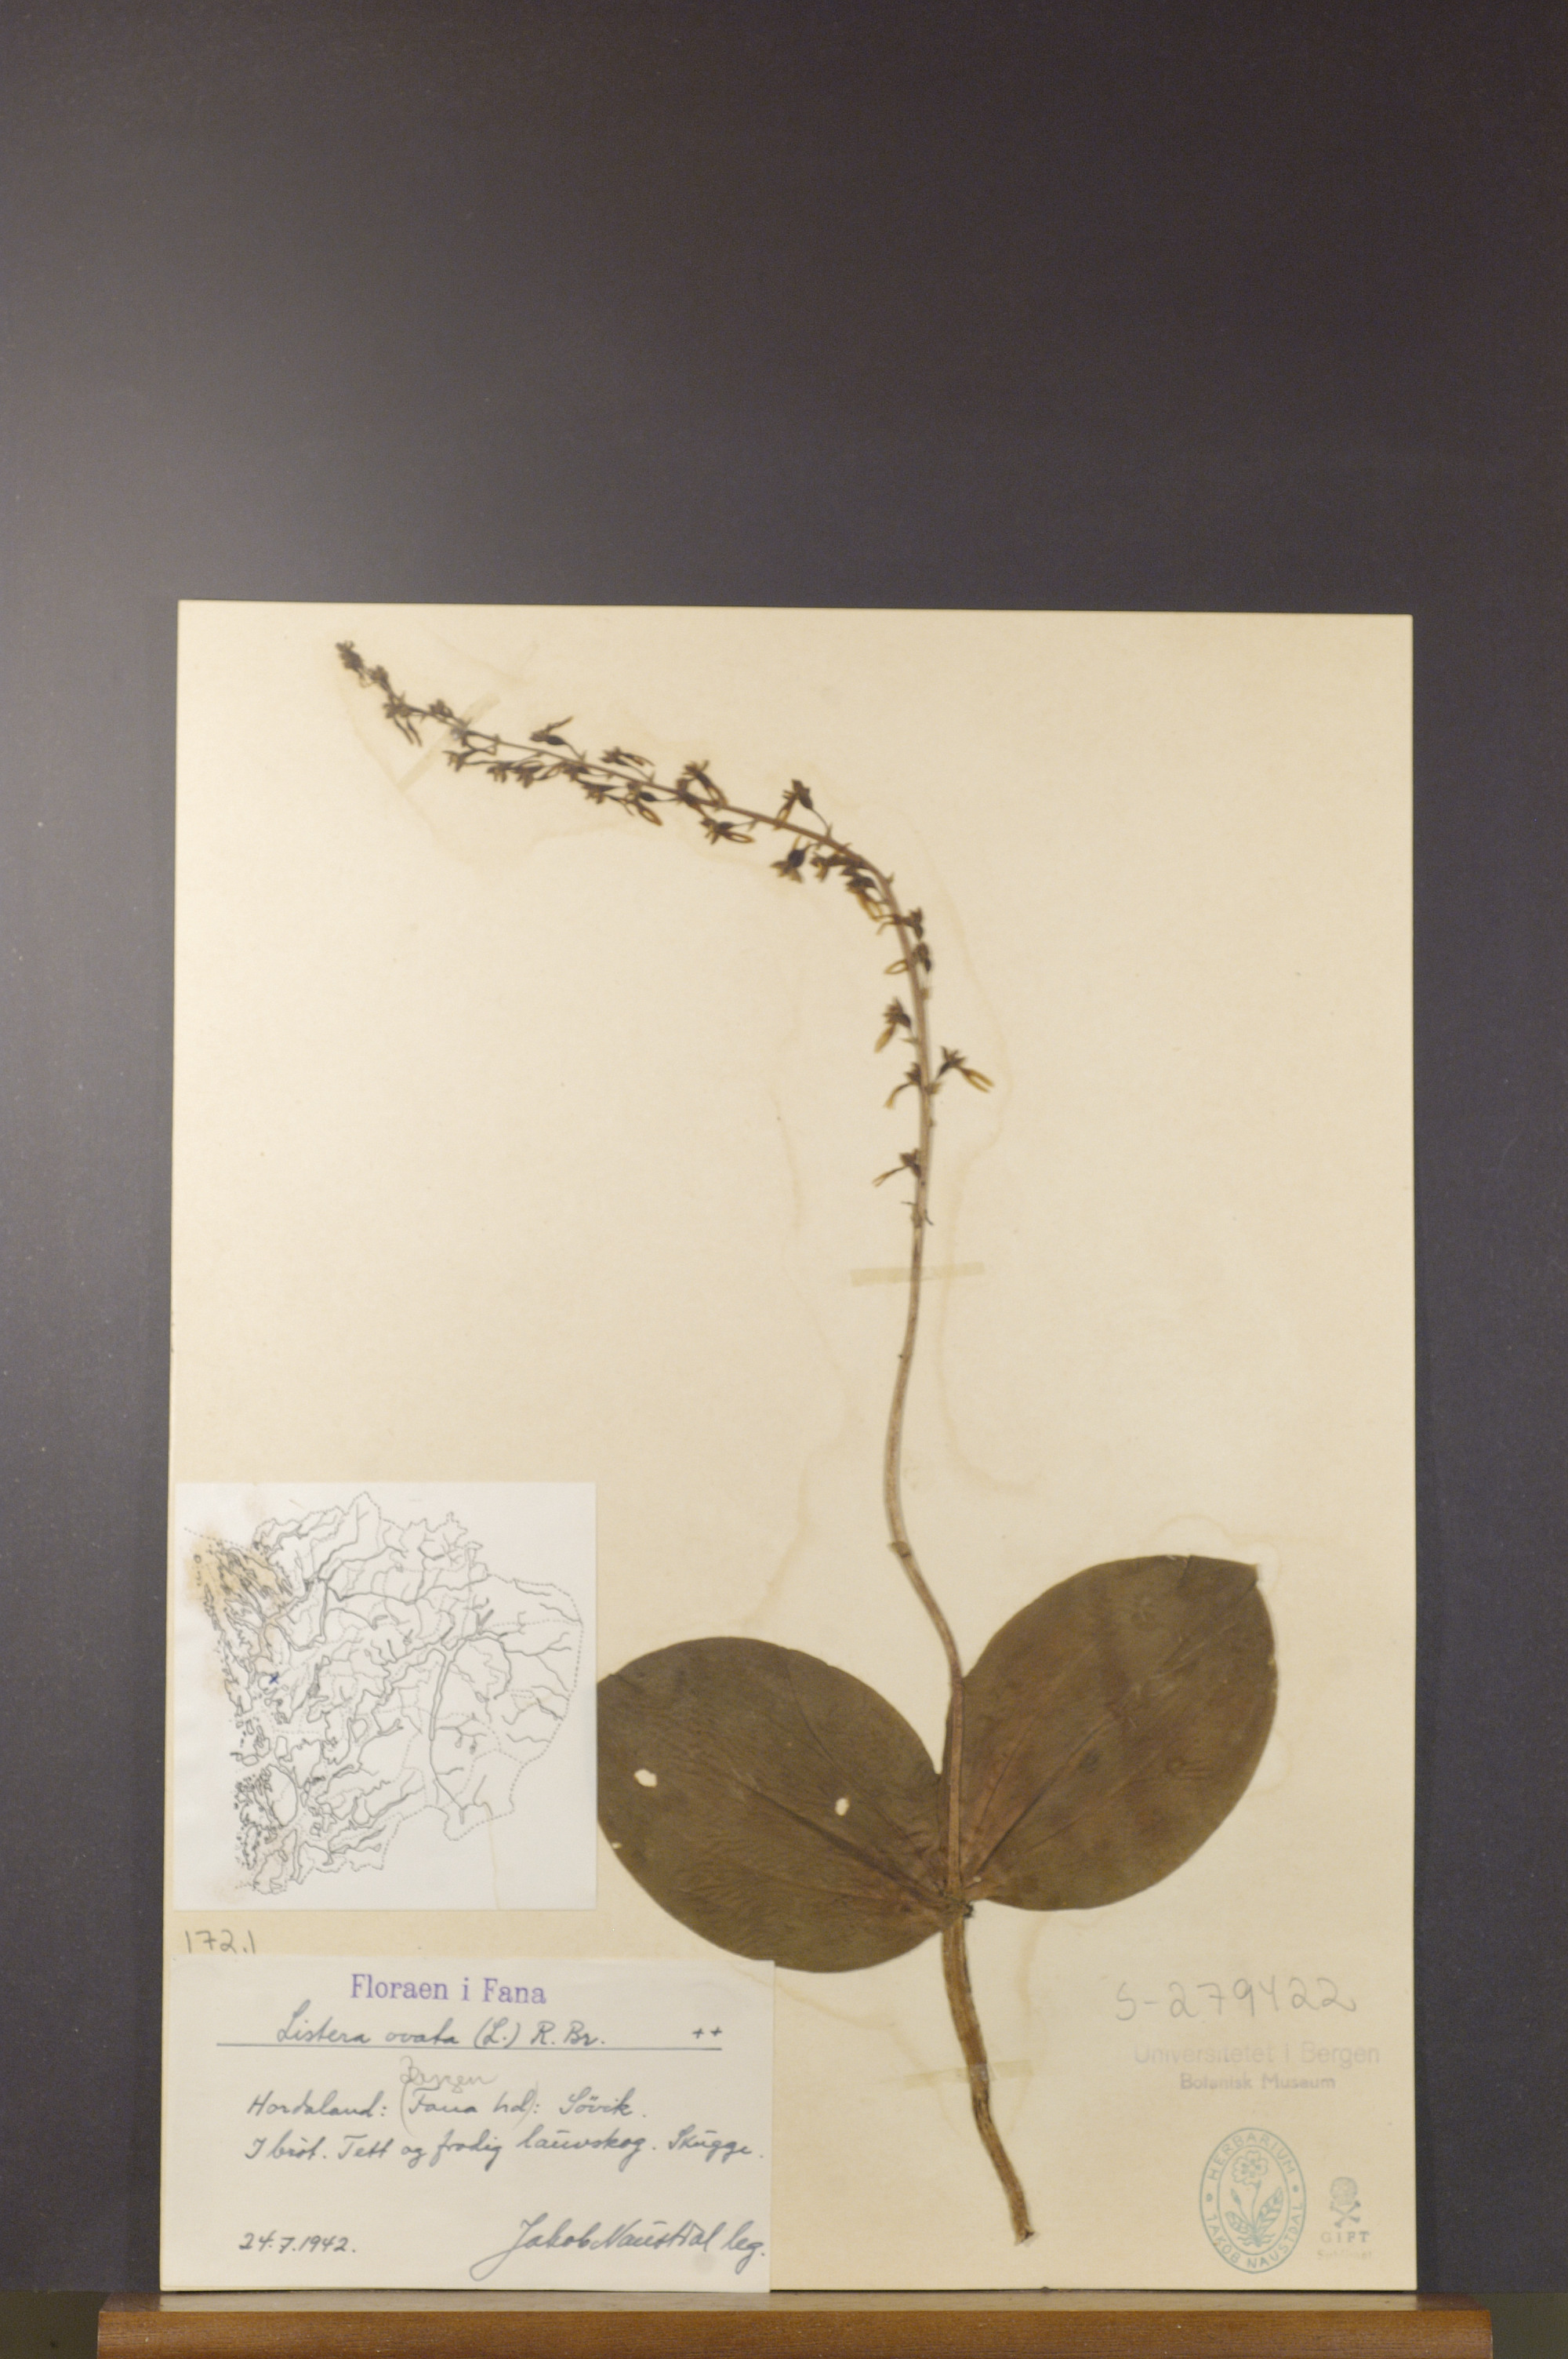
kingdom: Plantae
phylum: Tracheophyta
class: Liliopsida
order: Asparagales
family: Orchidaceae
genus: Neottia
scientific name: Neottia ovata
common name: Common twayblade
